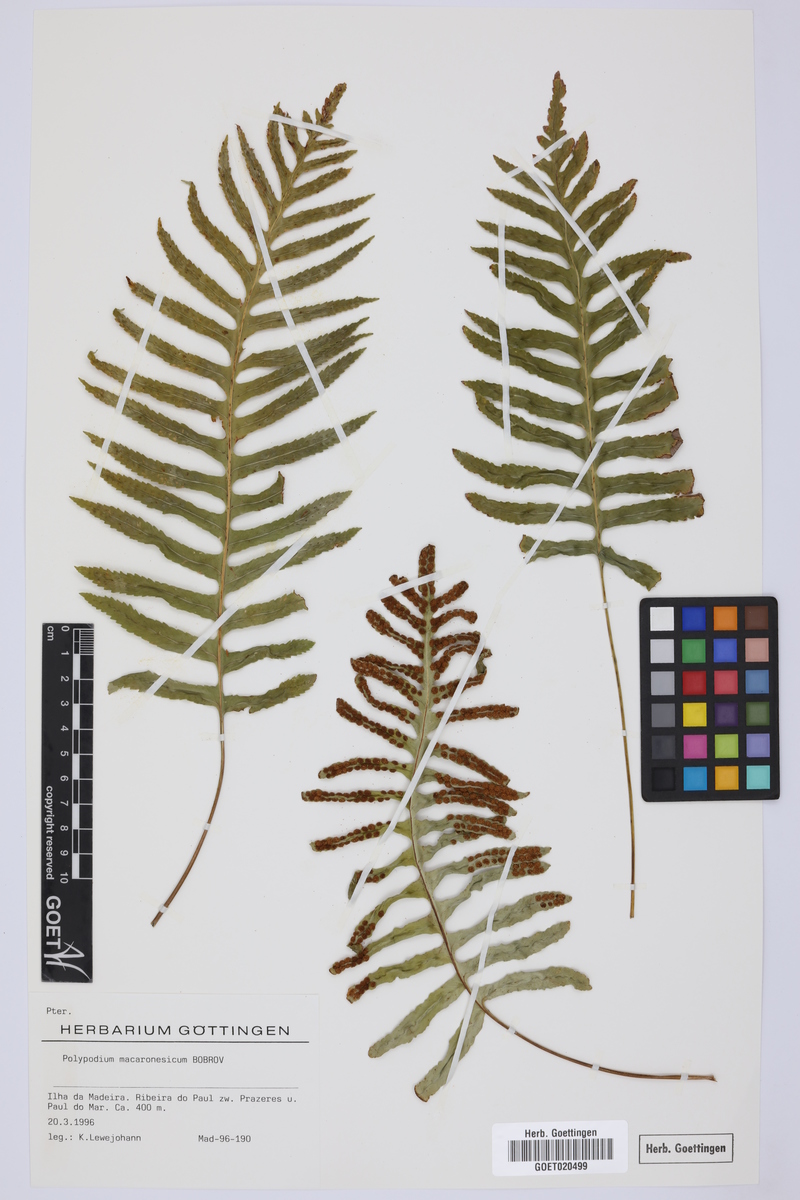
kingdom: Plantae
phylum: Tracheophyta
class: Polypodiopsida
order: Polypodiales
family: Polypodiaceae
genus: Polypodium
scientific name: Polypodium macaronesicum
